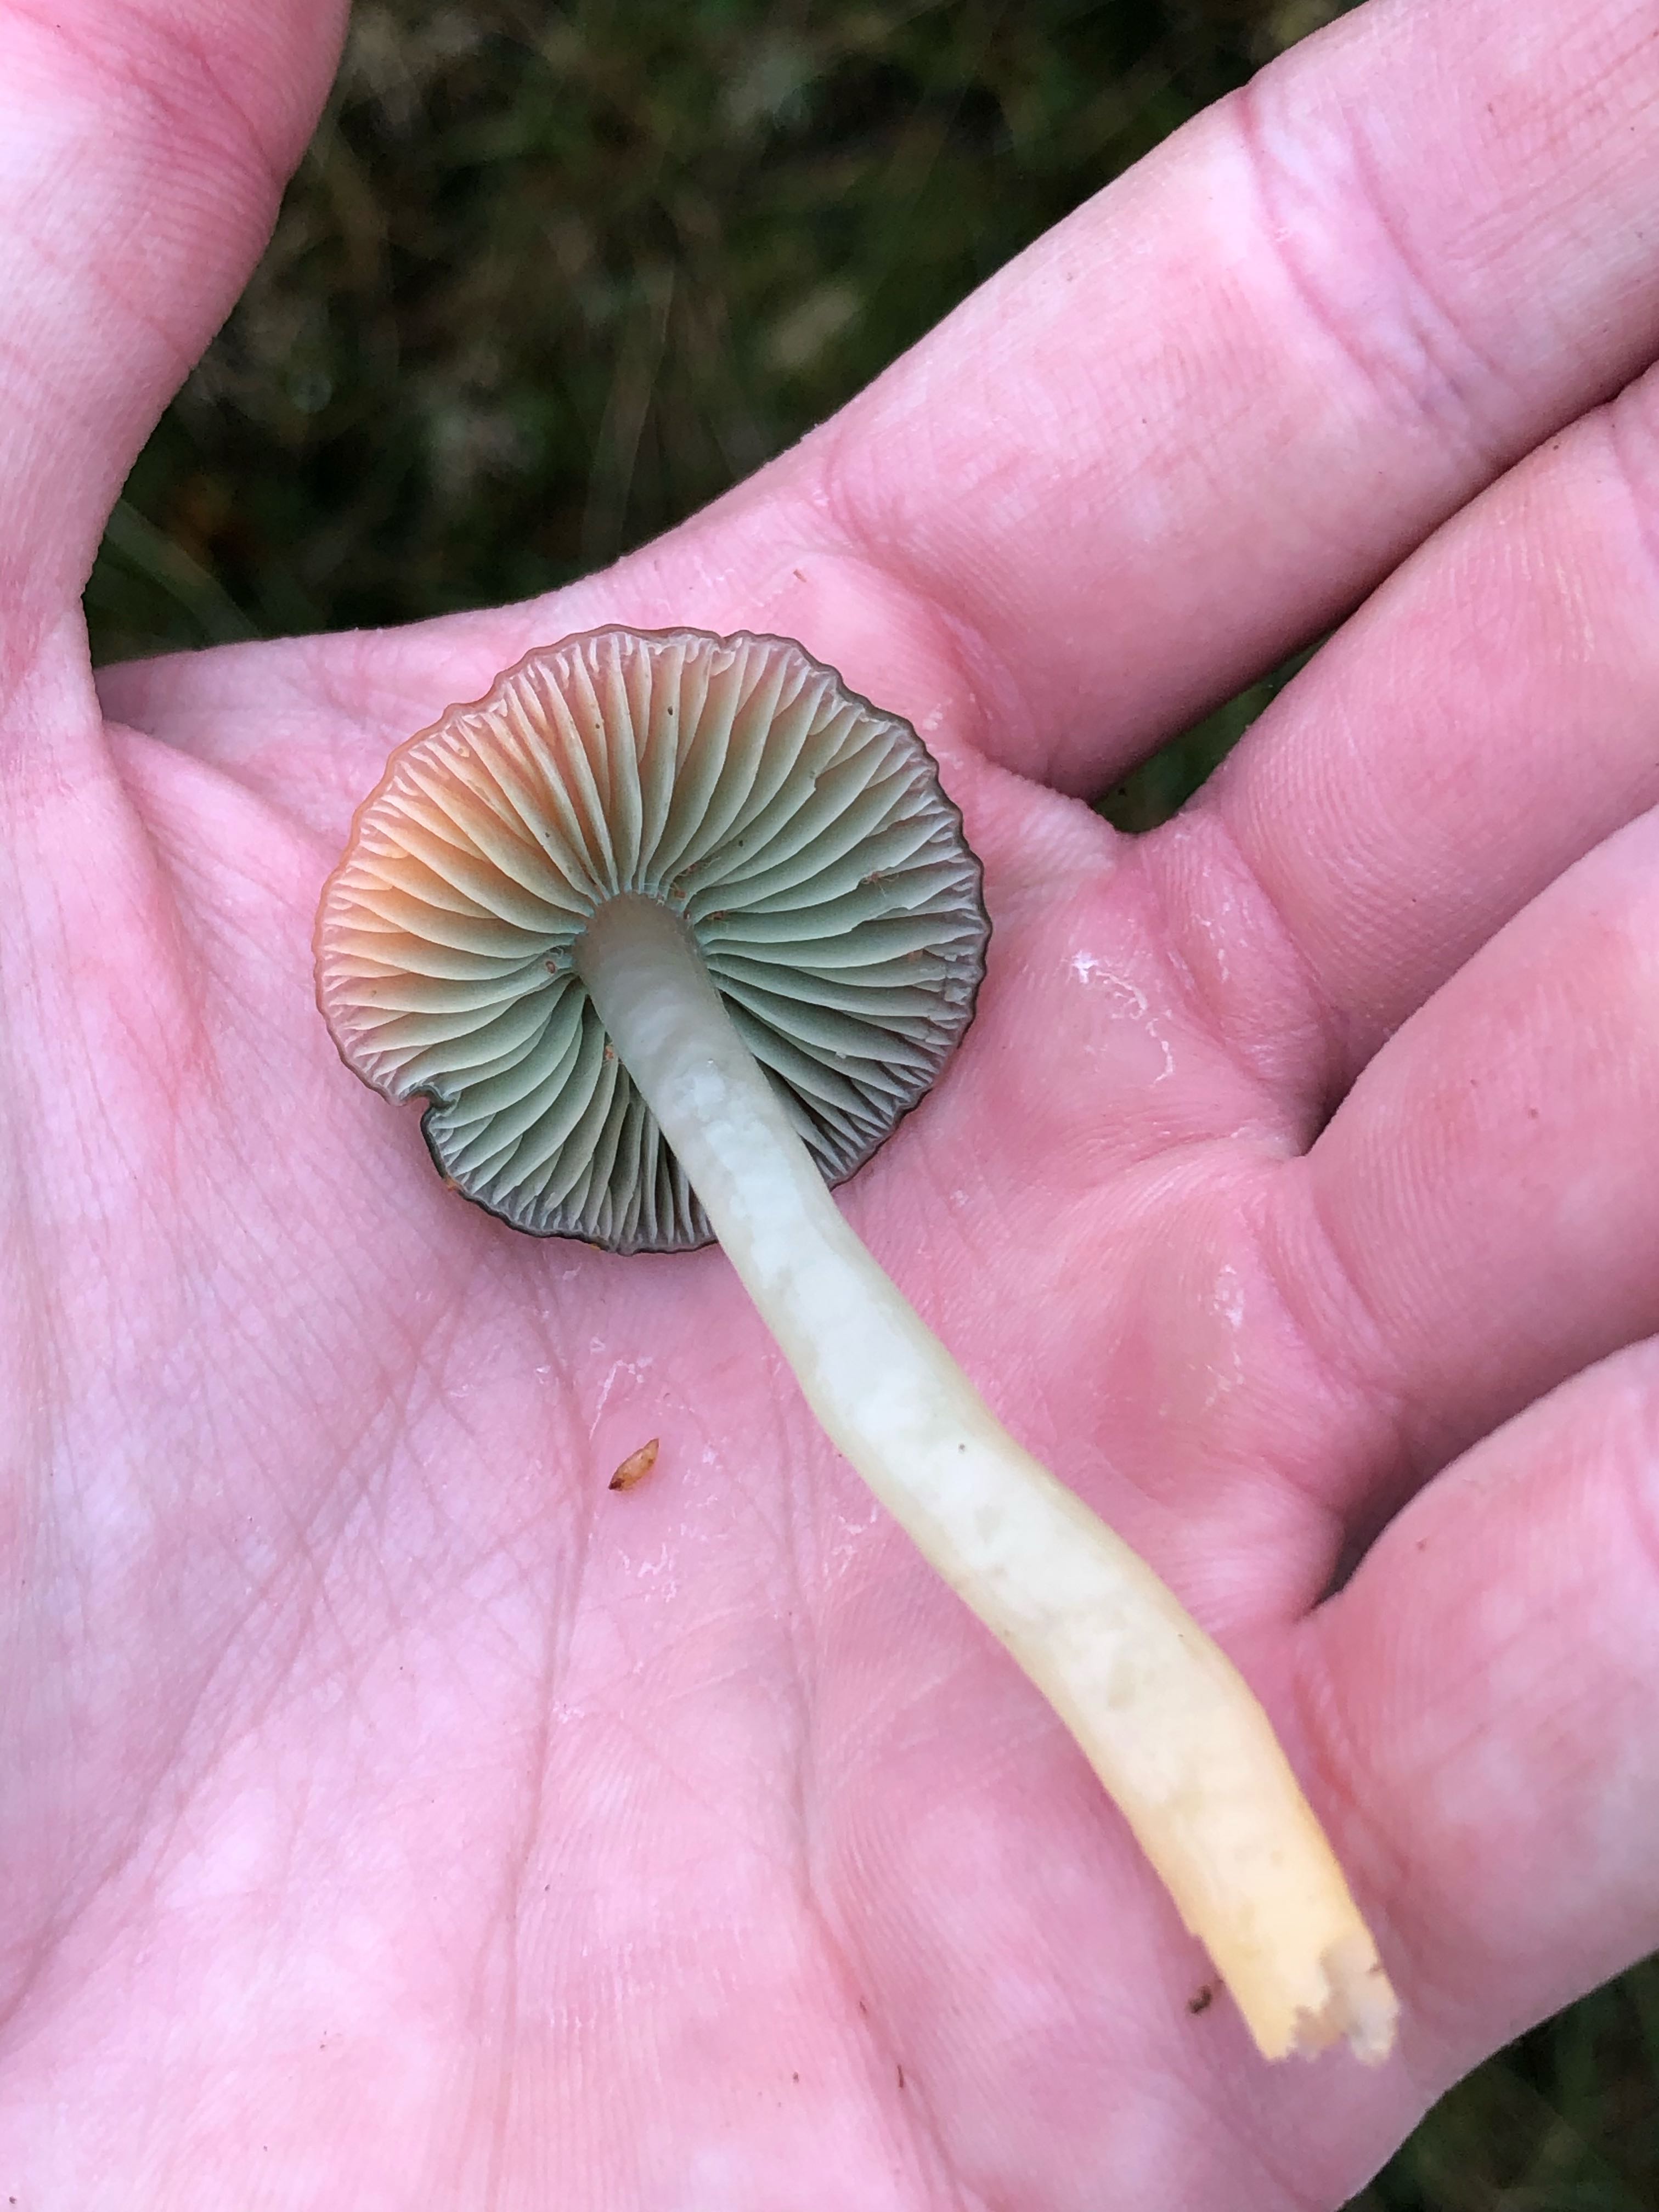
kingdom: Fungi
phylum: Basidiomycota
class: Agaricomycetes
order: Agaricales
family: Hygrophoraceae
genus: Gliophorus
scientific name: Gliophorus psittacinus
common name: papegøje-vokshat
